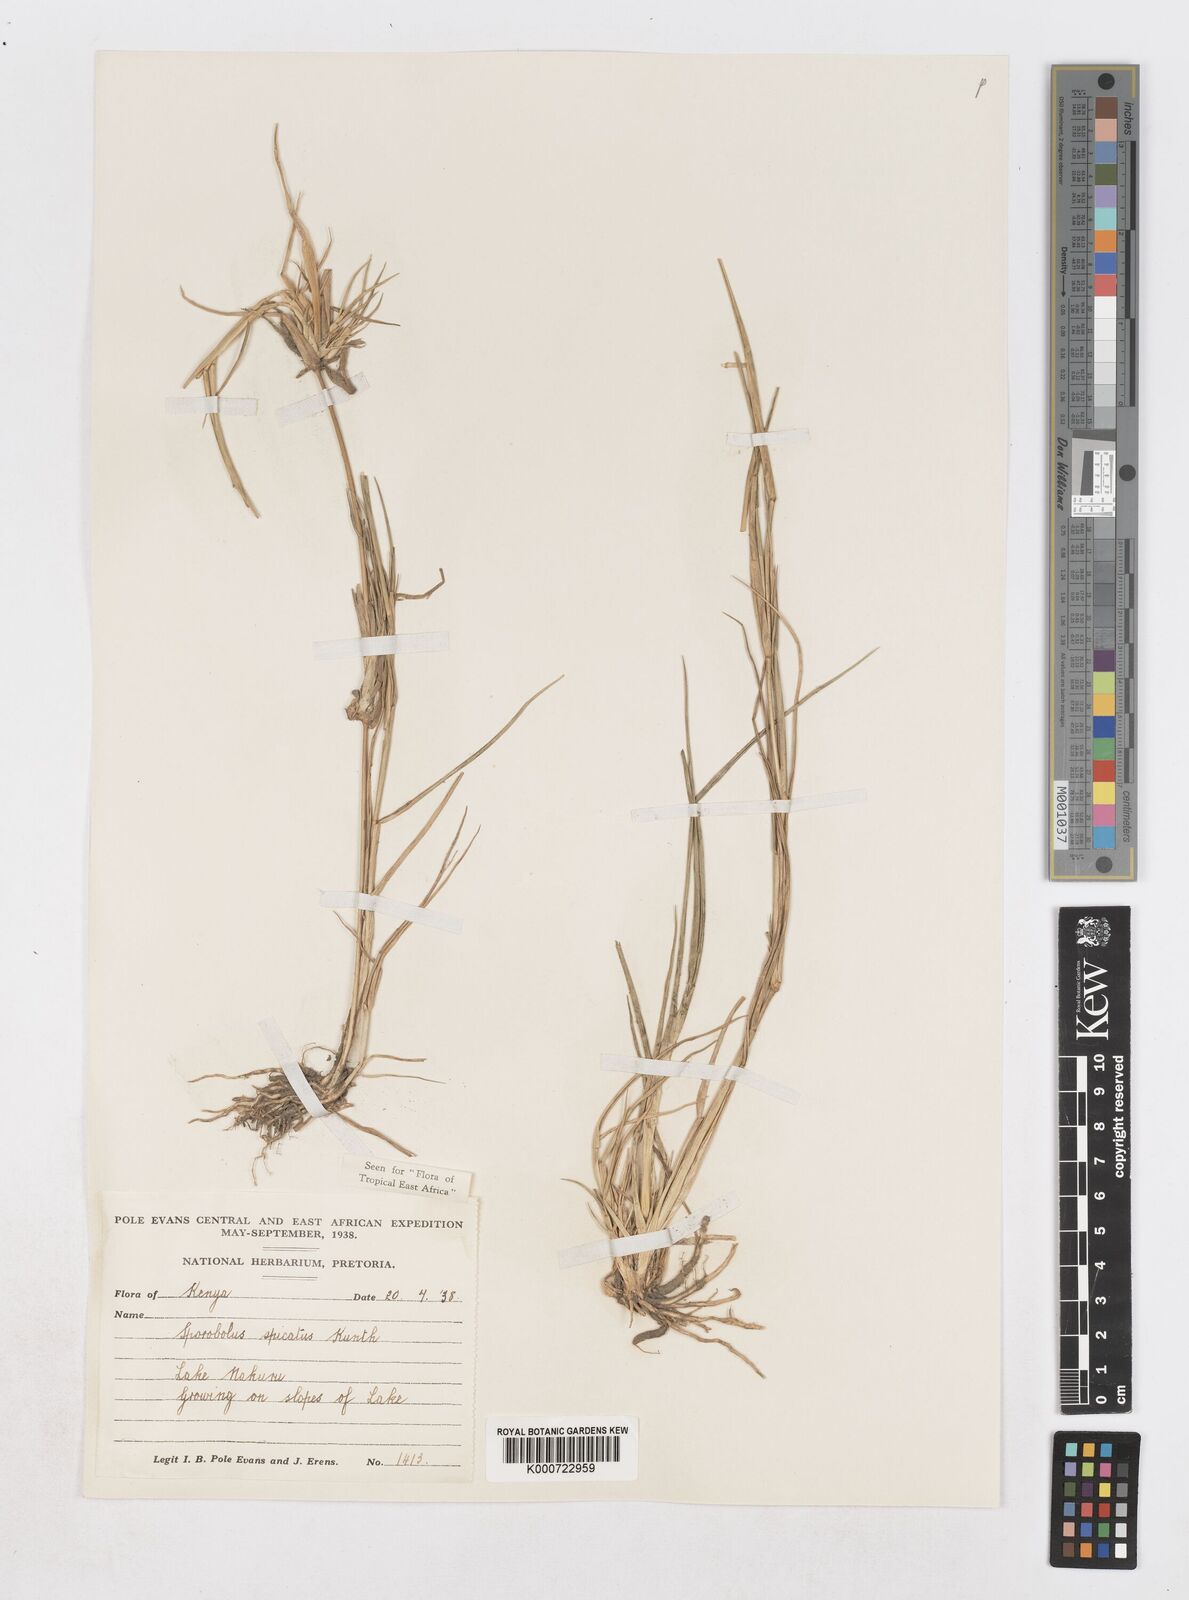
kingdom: Plantae
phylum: Tracheophyta
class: Liliopsida
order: Poales
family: Poaceae
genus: Sporobolus
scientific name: Sporobolus spicatus
